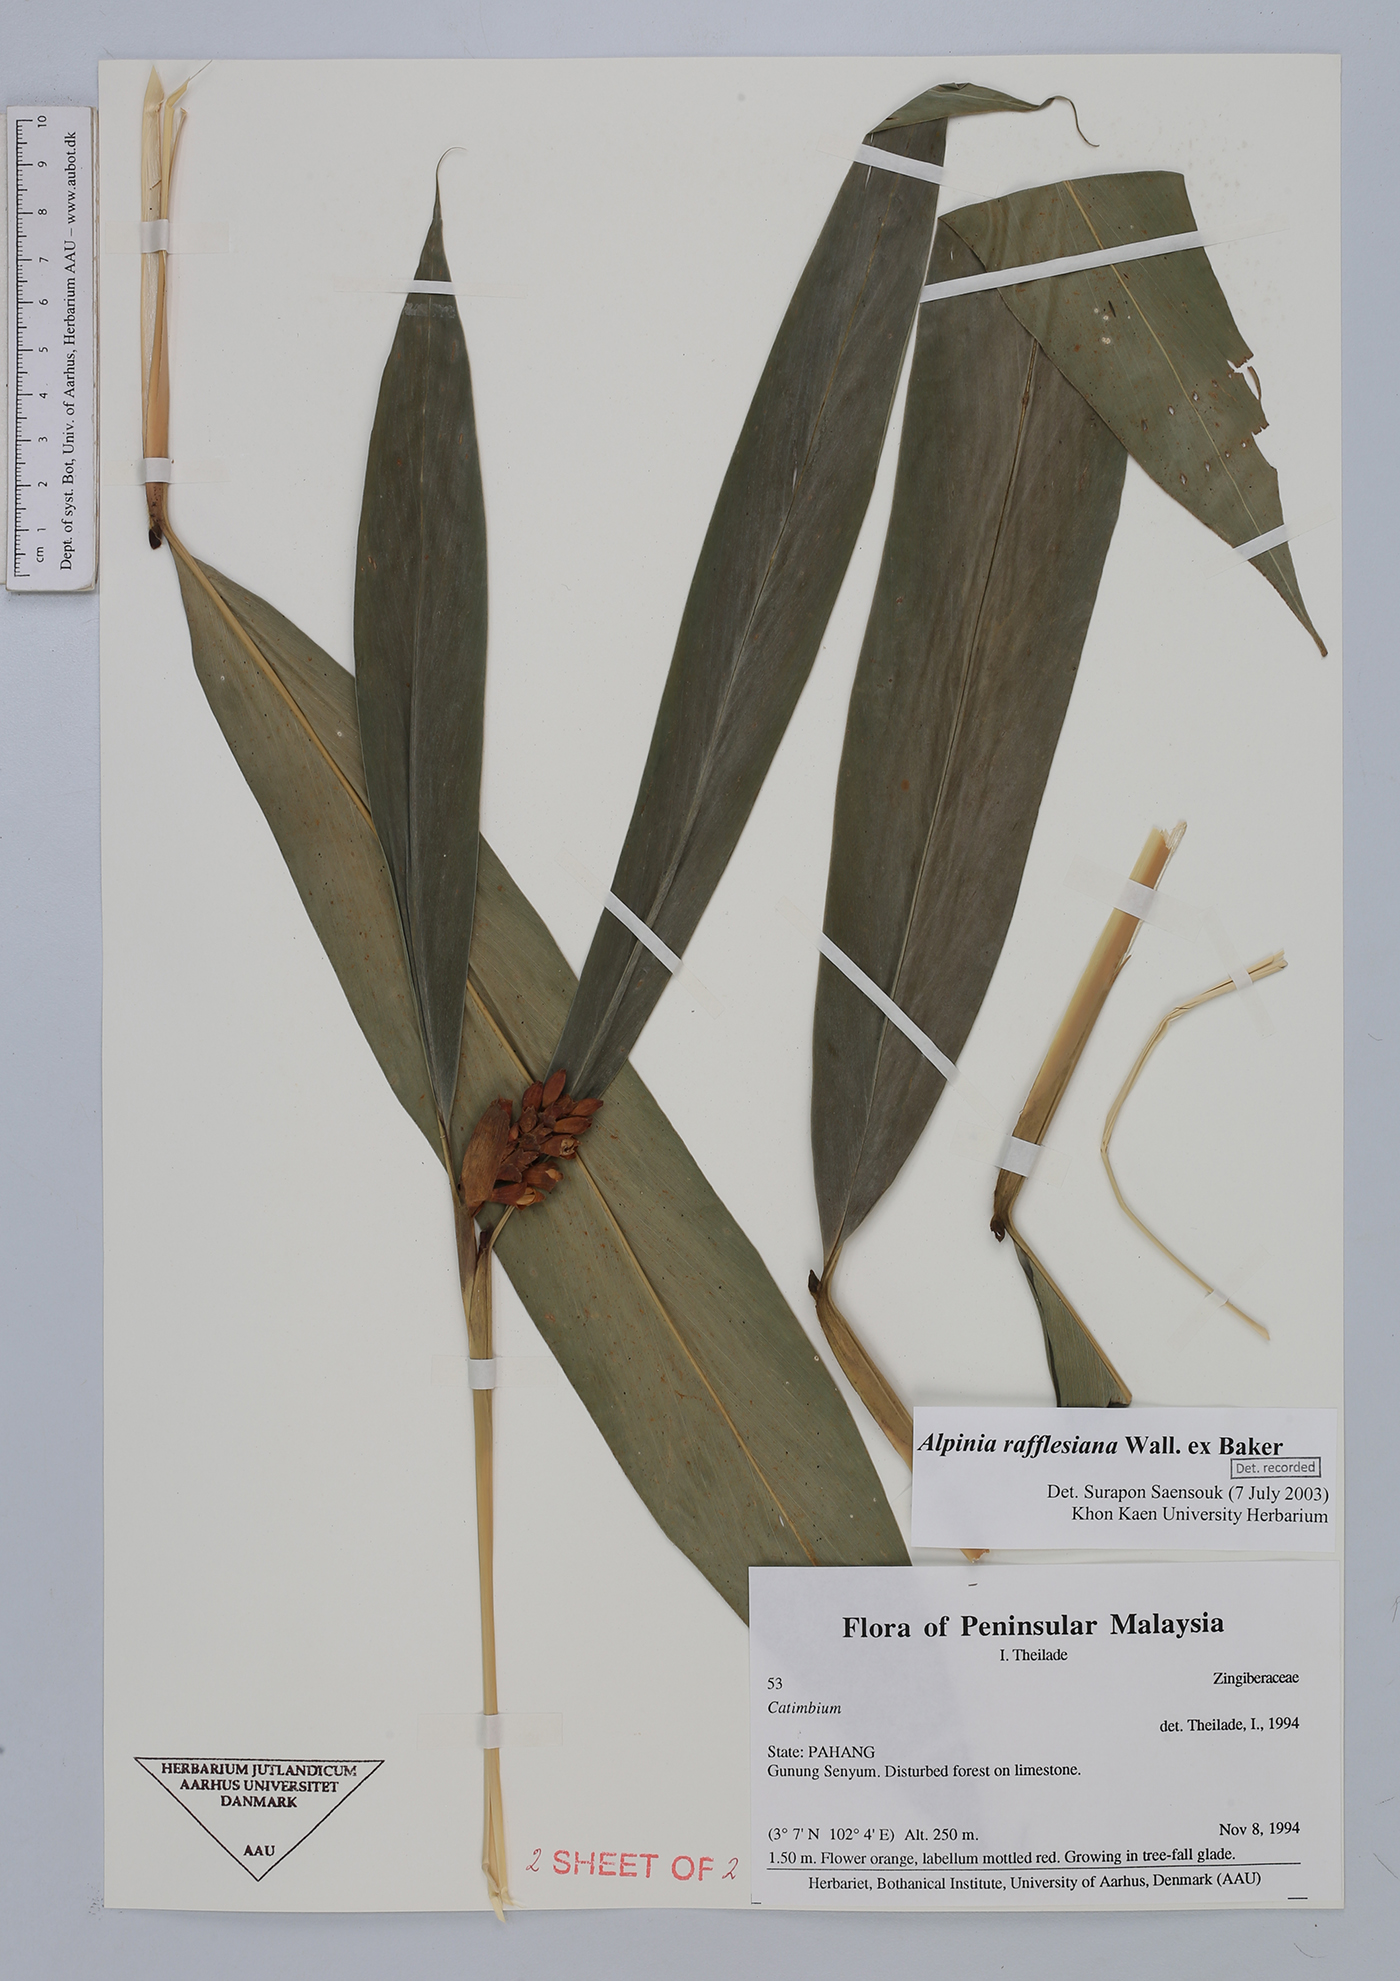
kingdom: Plantae
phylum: Tracheophyta
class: Liliopsida
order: Zingiberales
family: Zingiberaceae
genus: Alpinia
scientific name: Alpinia rafflesiana
